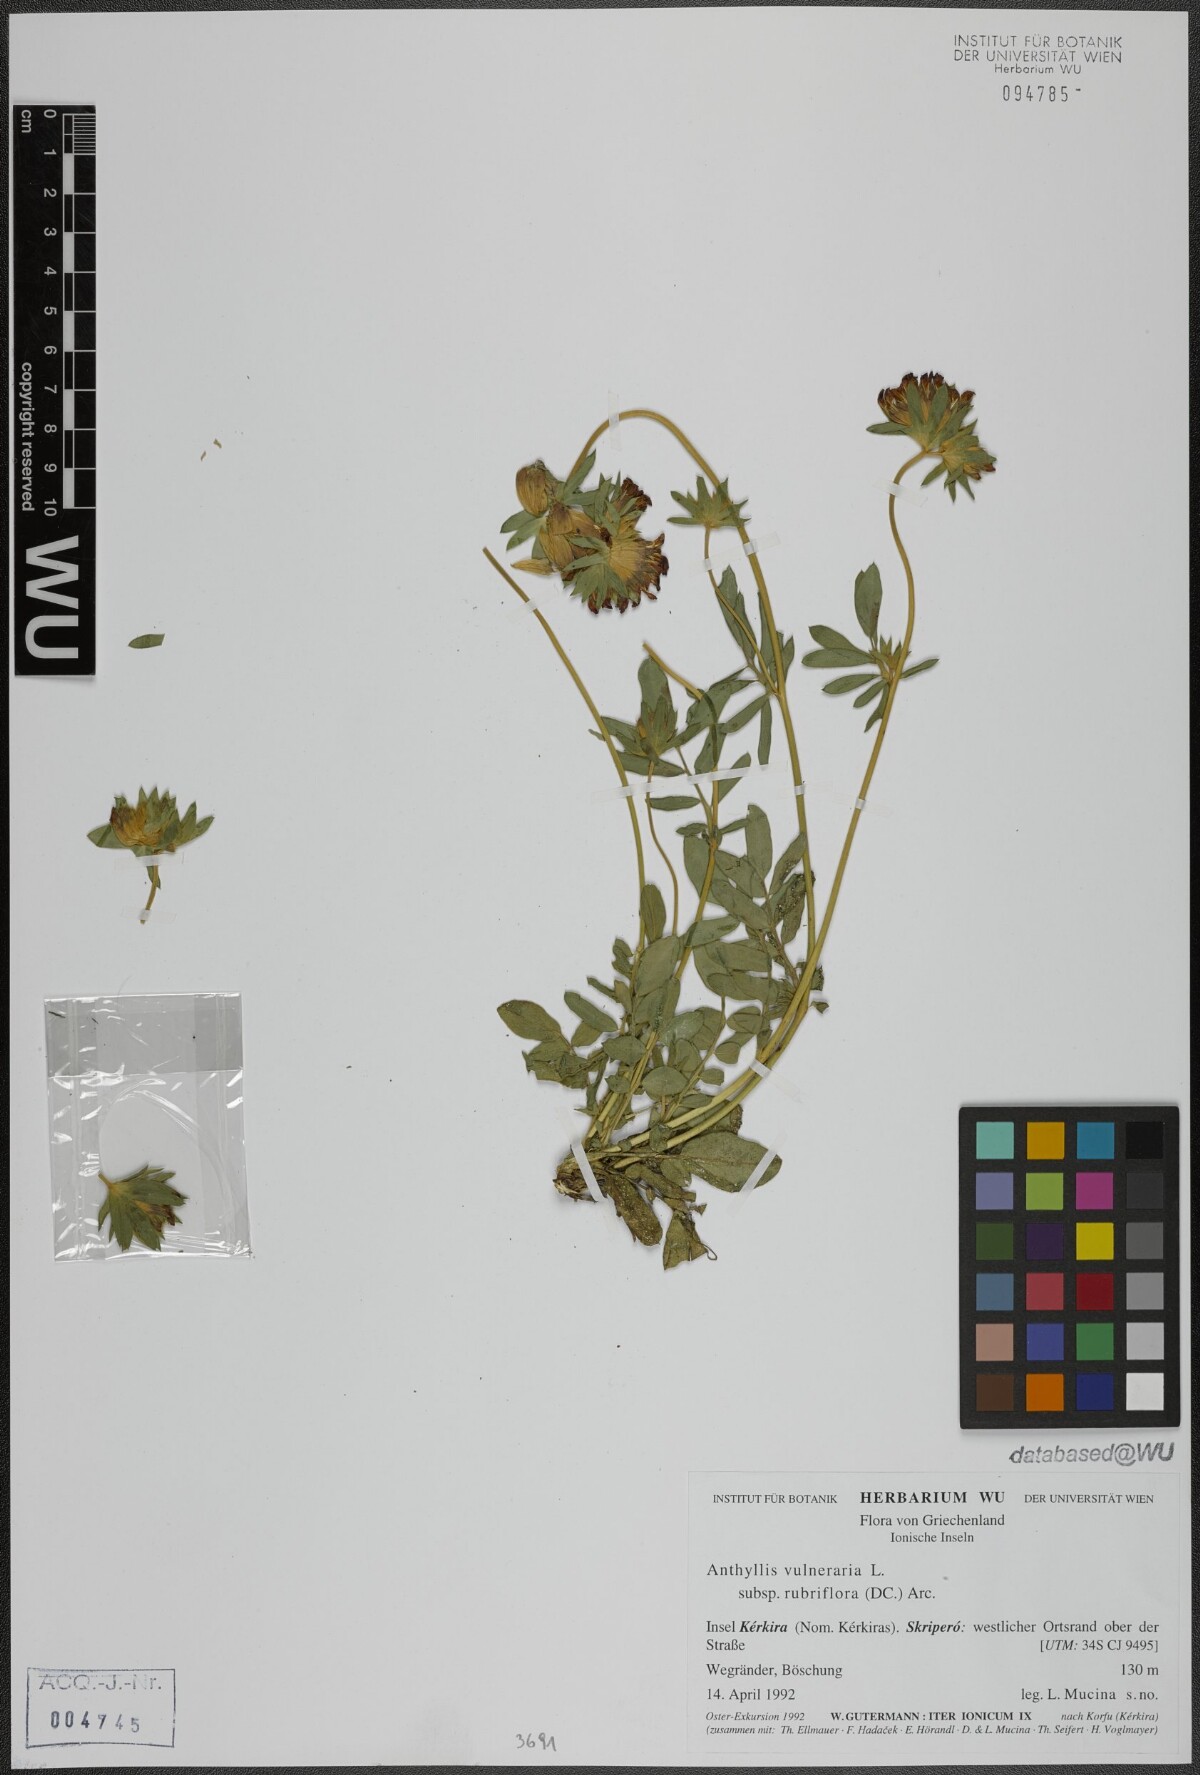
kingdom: Plantae
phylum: Tracheophyta
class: Magnoliopsida
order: Fabales
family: Fabaceae
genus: Anthyllis
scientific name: Anthyllis vulneraria
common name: Kidney vetch
